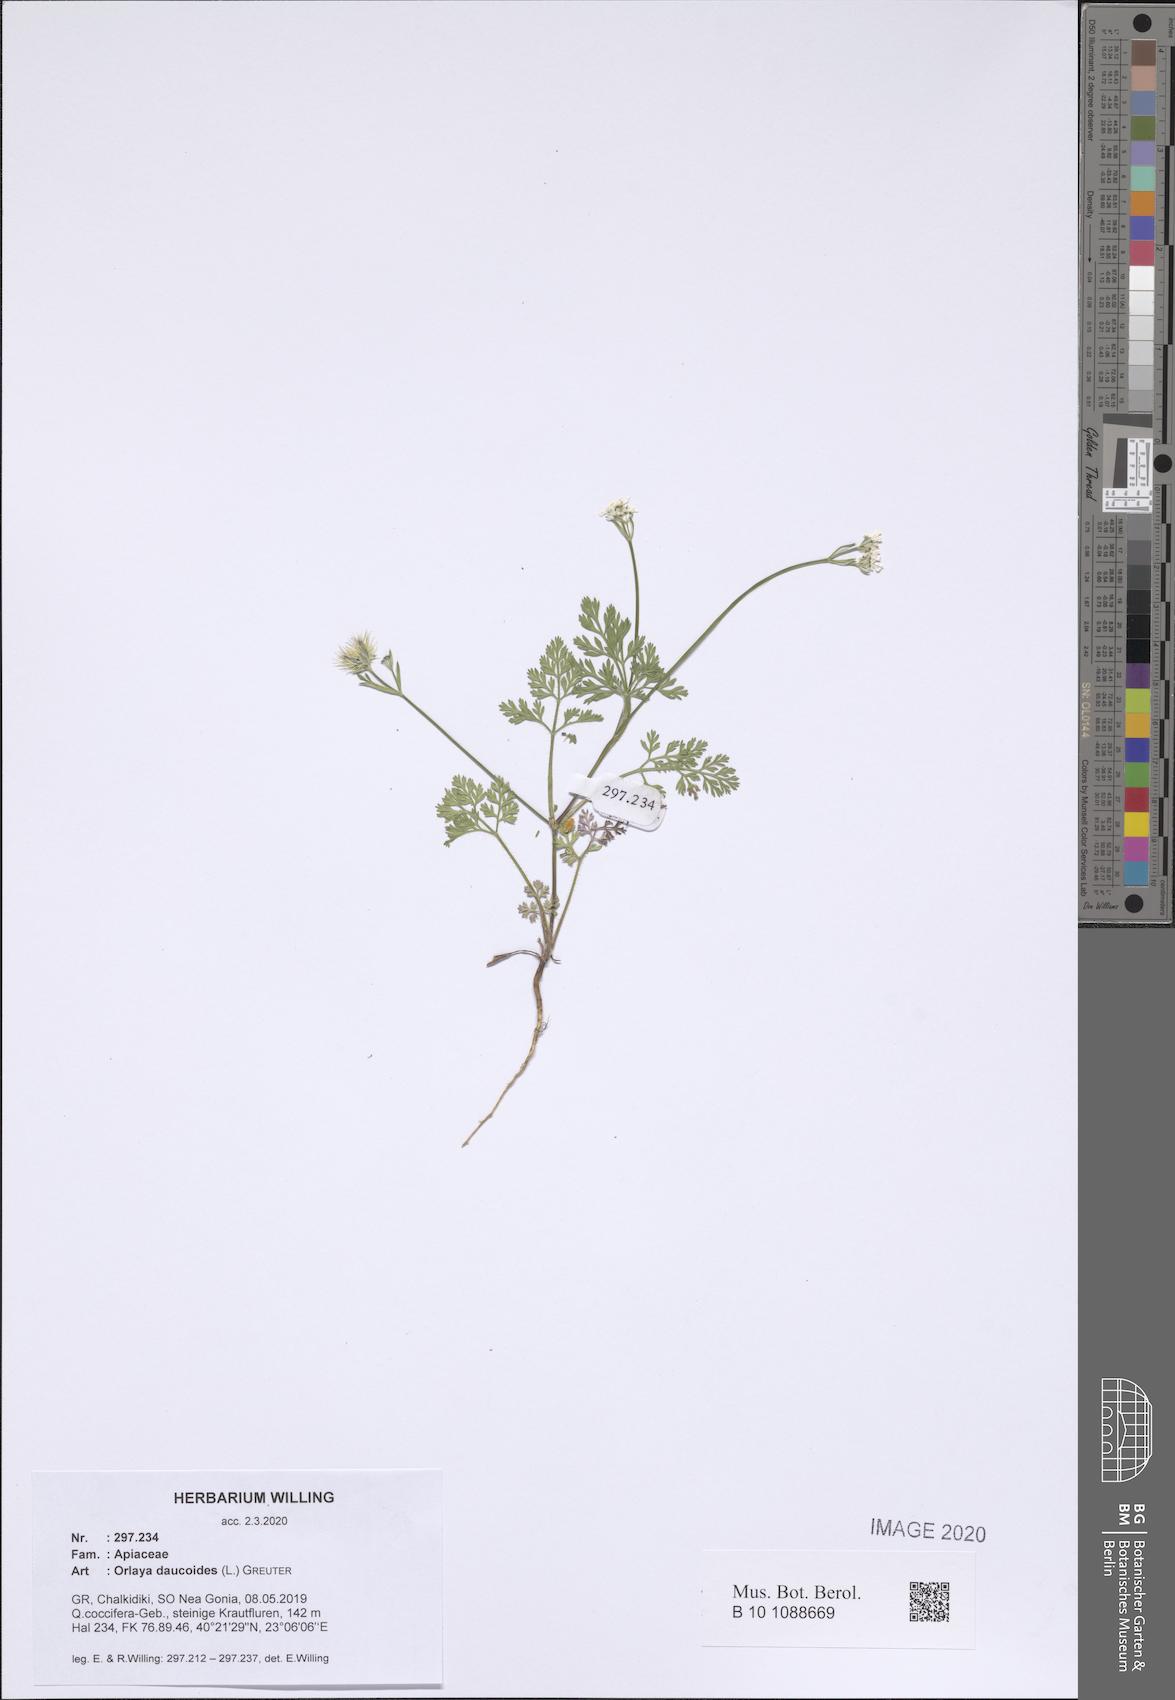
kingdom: Plantae
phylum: Tracheophyta
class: Magnoliopsida
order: Apiales
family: Apiaceae
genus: Orlaya
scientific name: Orlaya daucoides
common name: Flat-fruit orlaya
